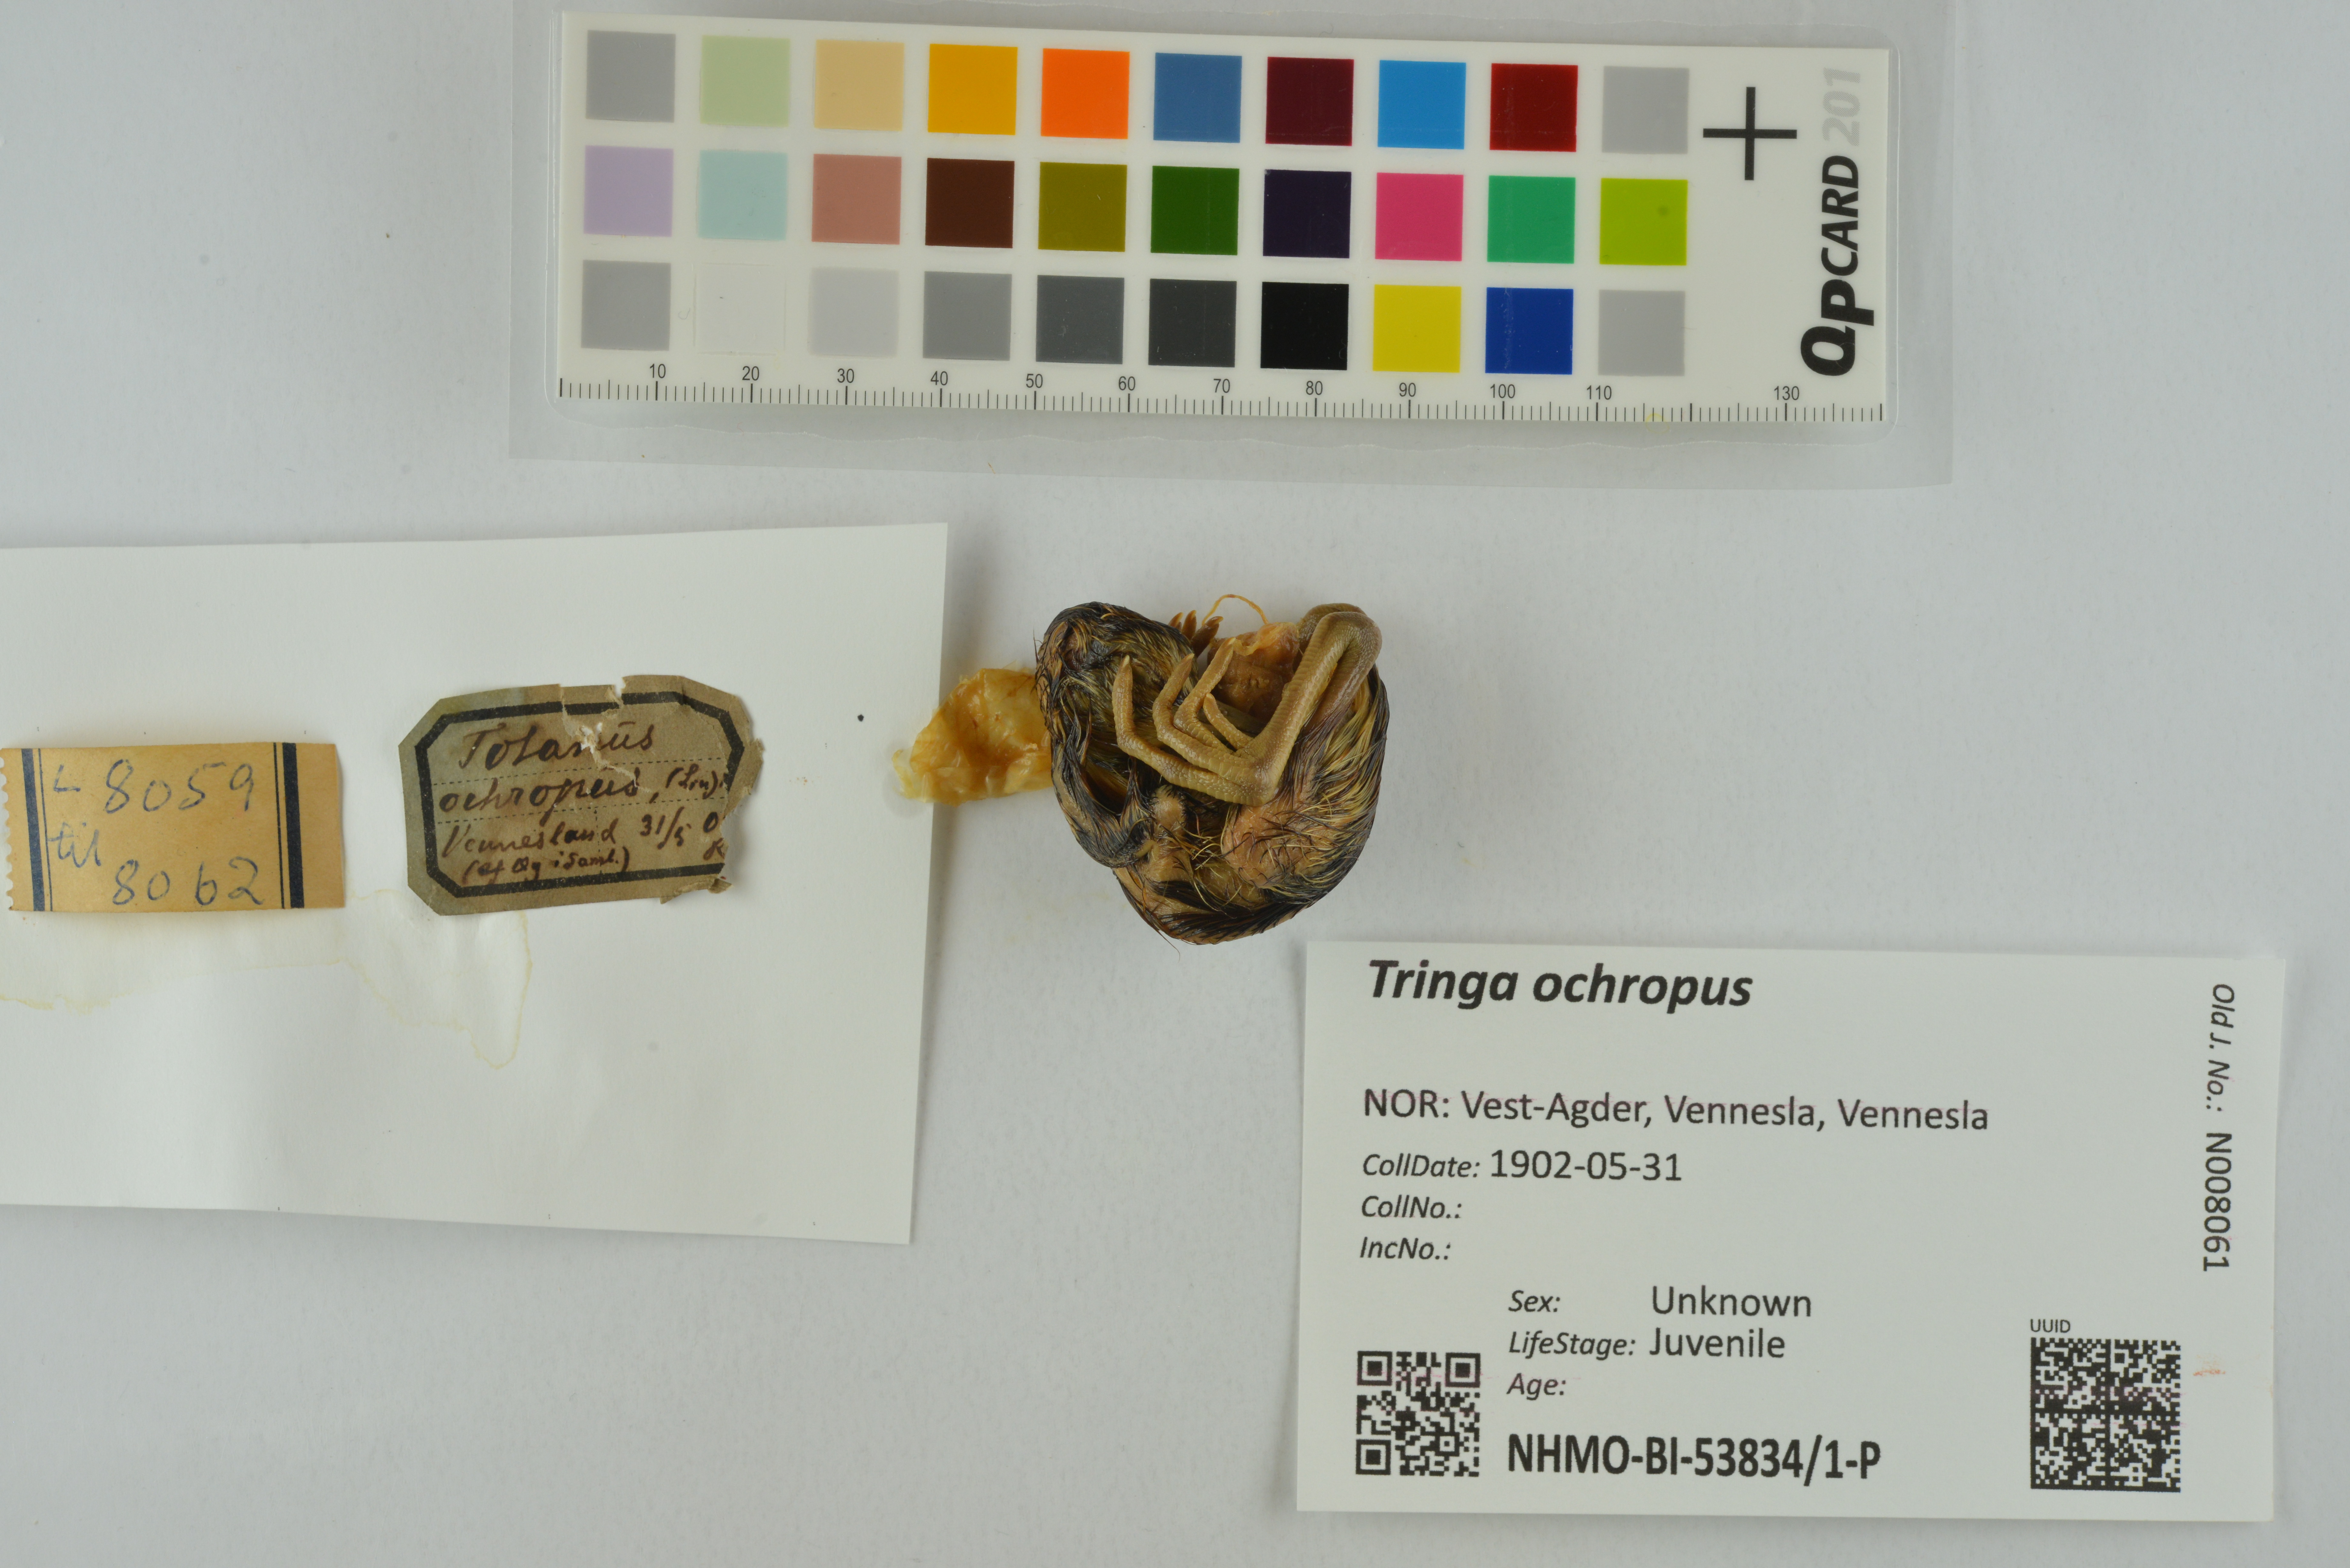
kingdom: Animalia
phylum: Chordata
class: Aves
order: Charadriiformes
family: Scolopacidae
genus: Tringa
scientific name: Tringa ochropus
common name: Green sandpiper
